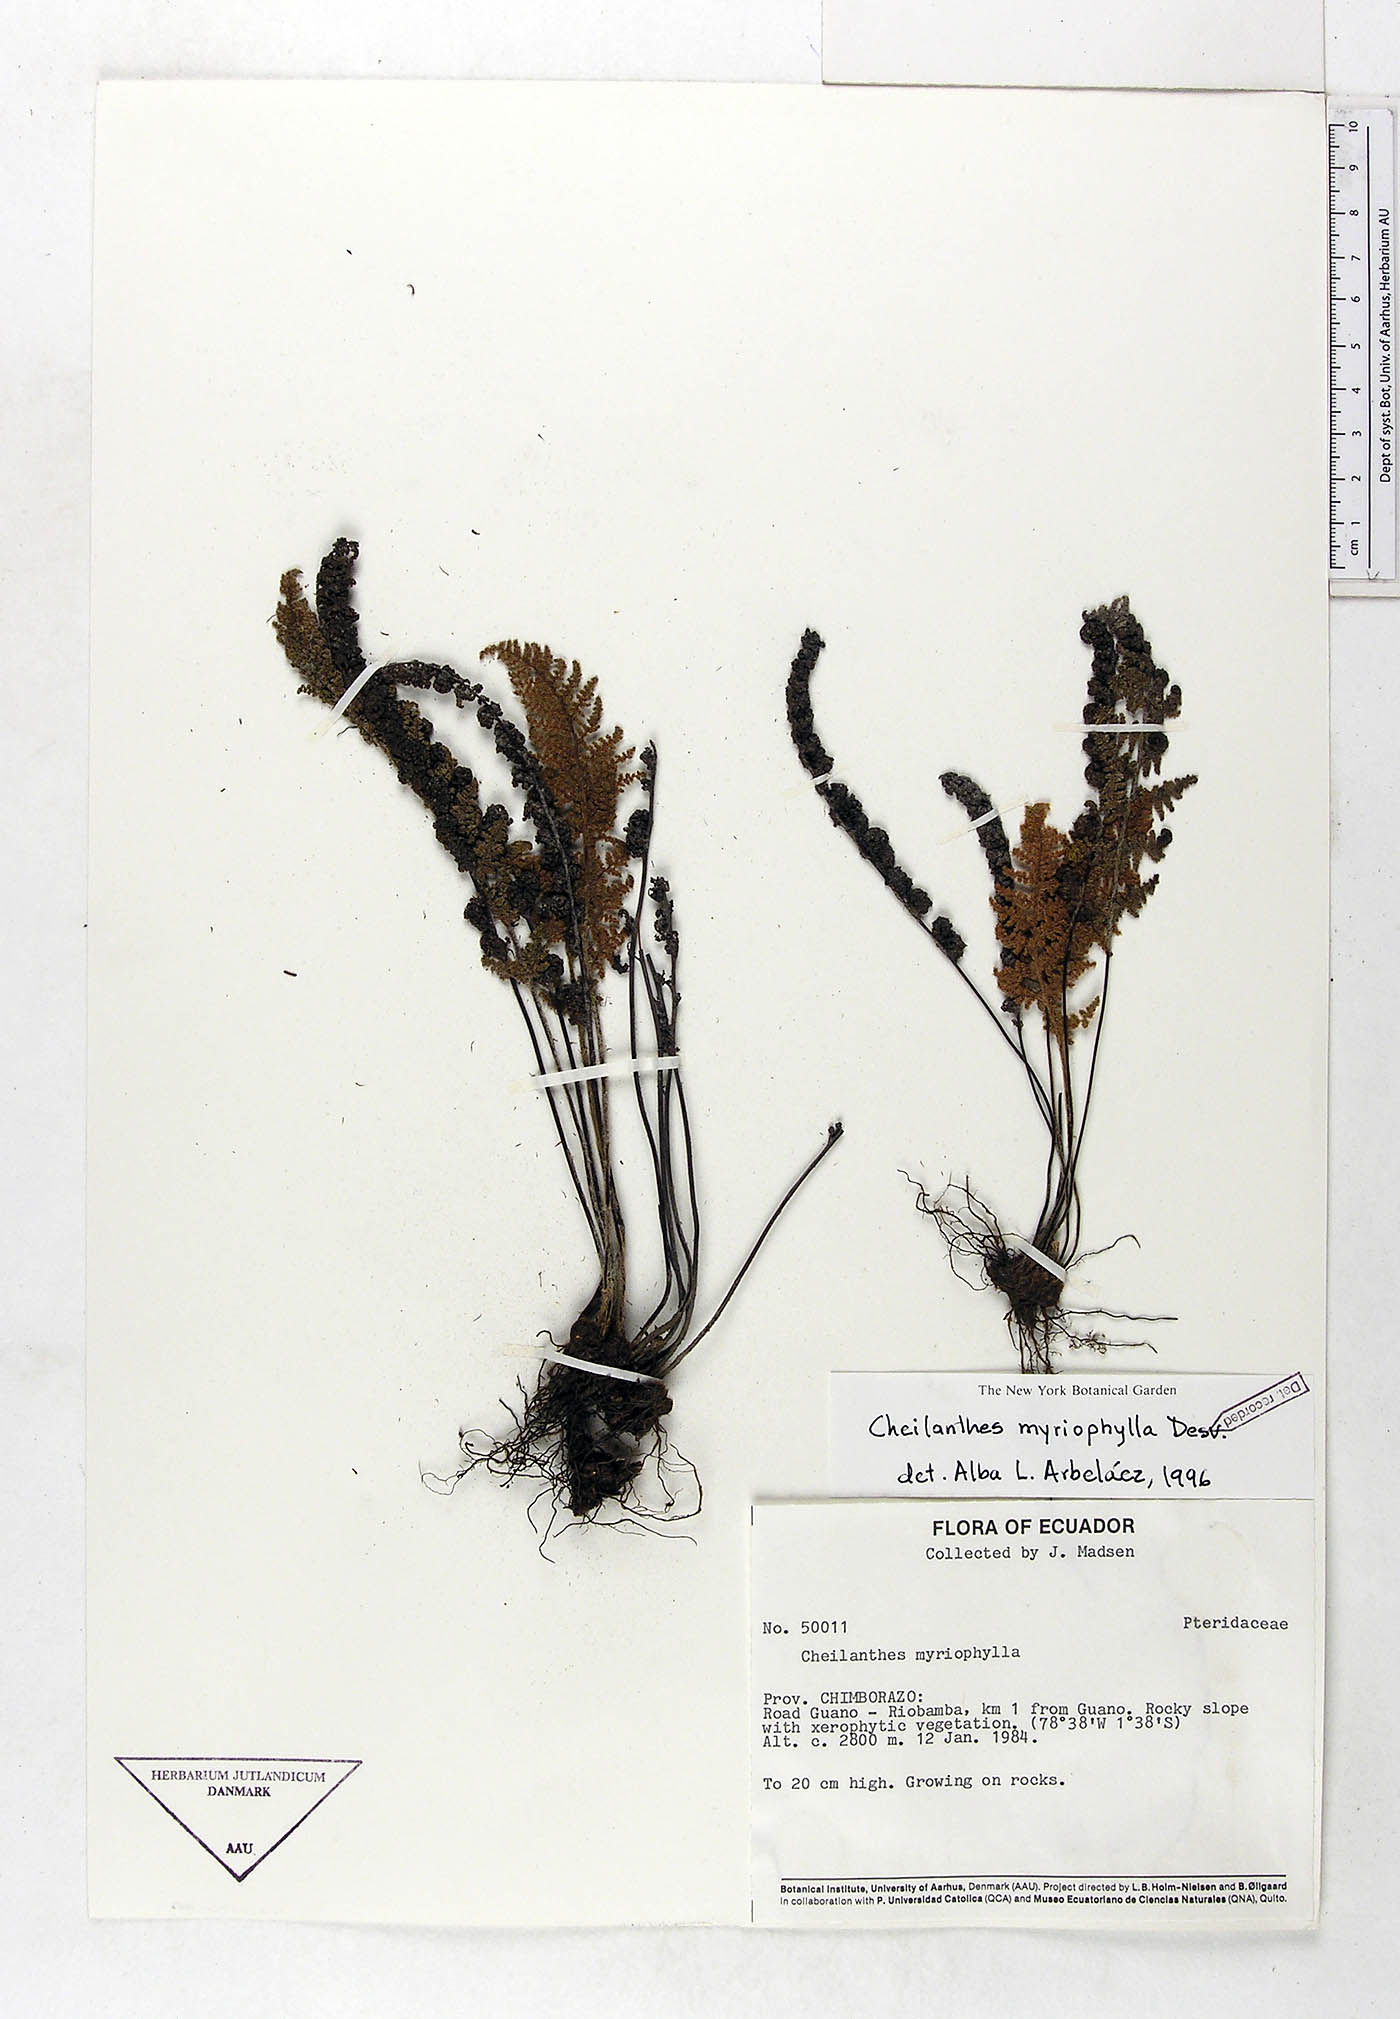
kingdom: Plantae
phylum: Tracheophyta
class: Polypodiopsida
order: Polypodiales
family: Pteridaceae
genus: Myriopteris
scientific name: Myriopteris myriophylla
